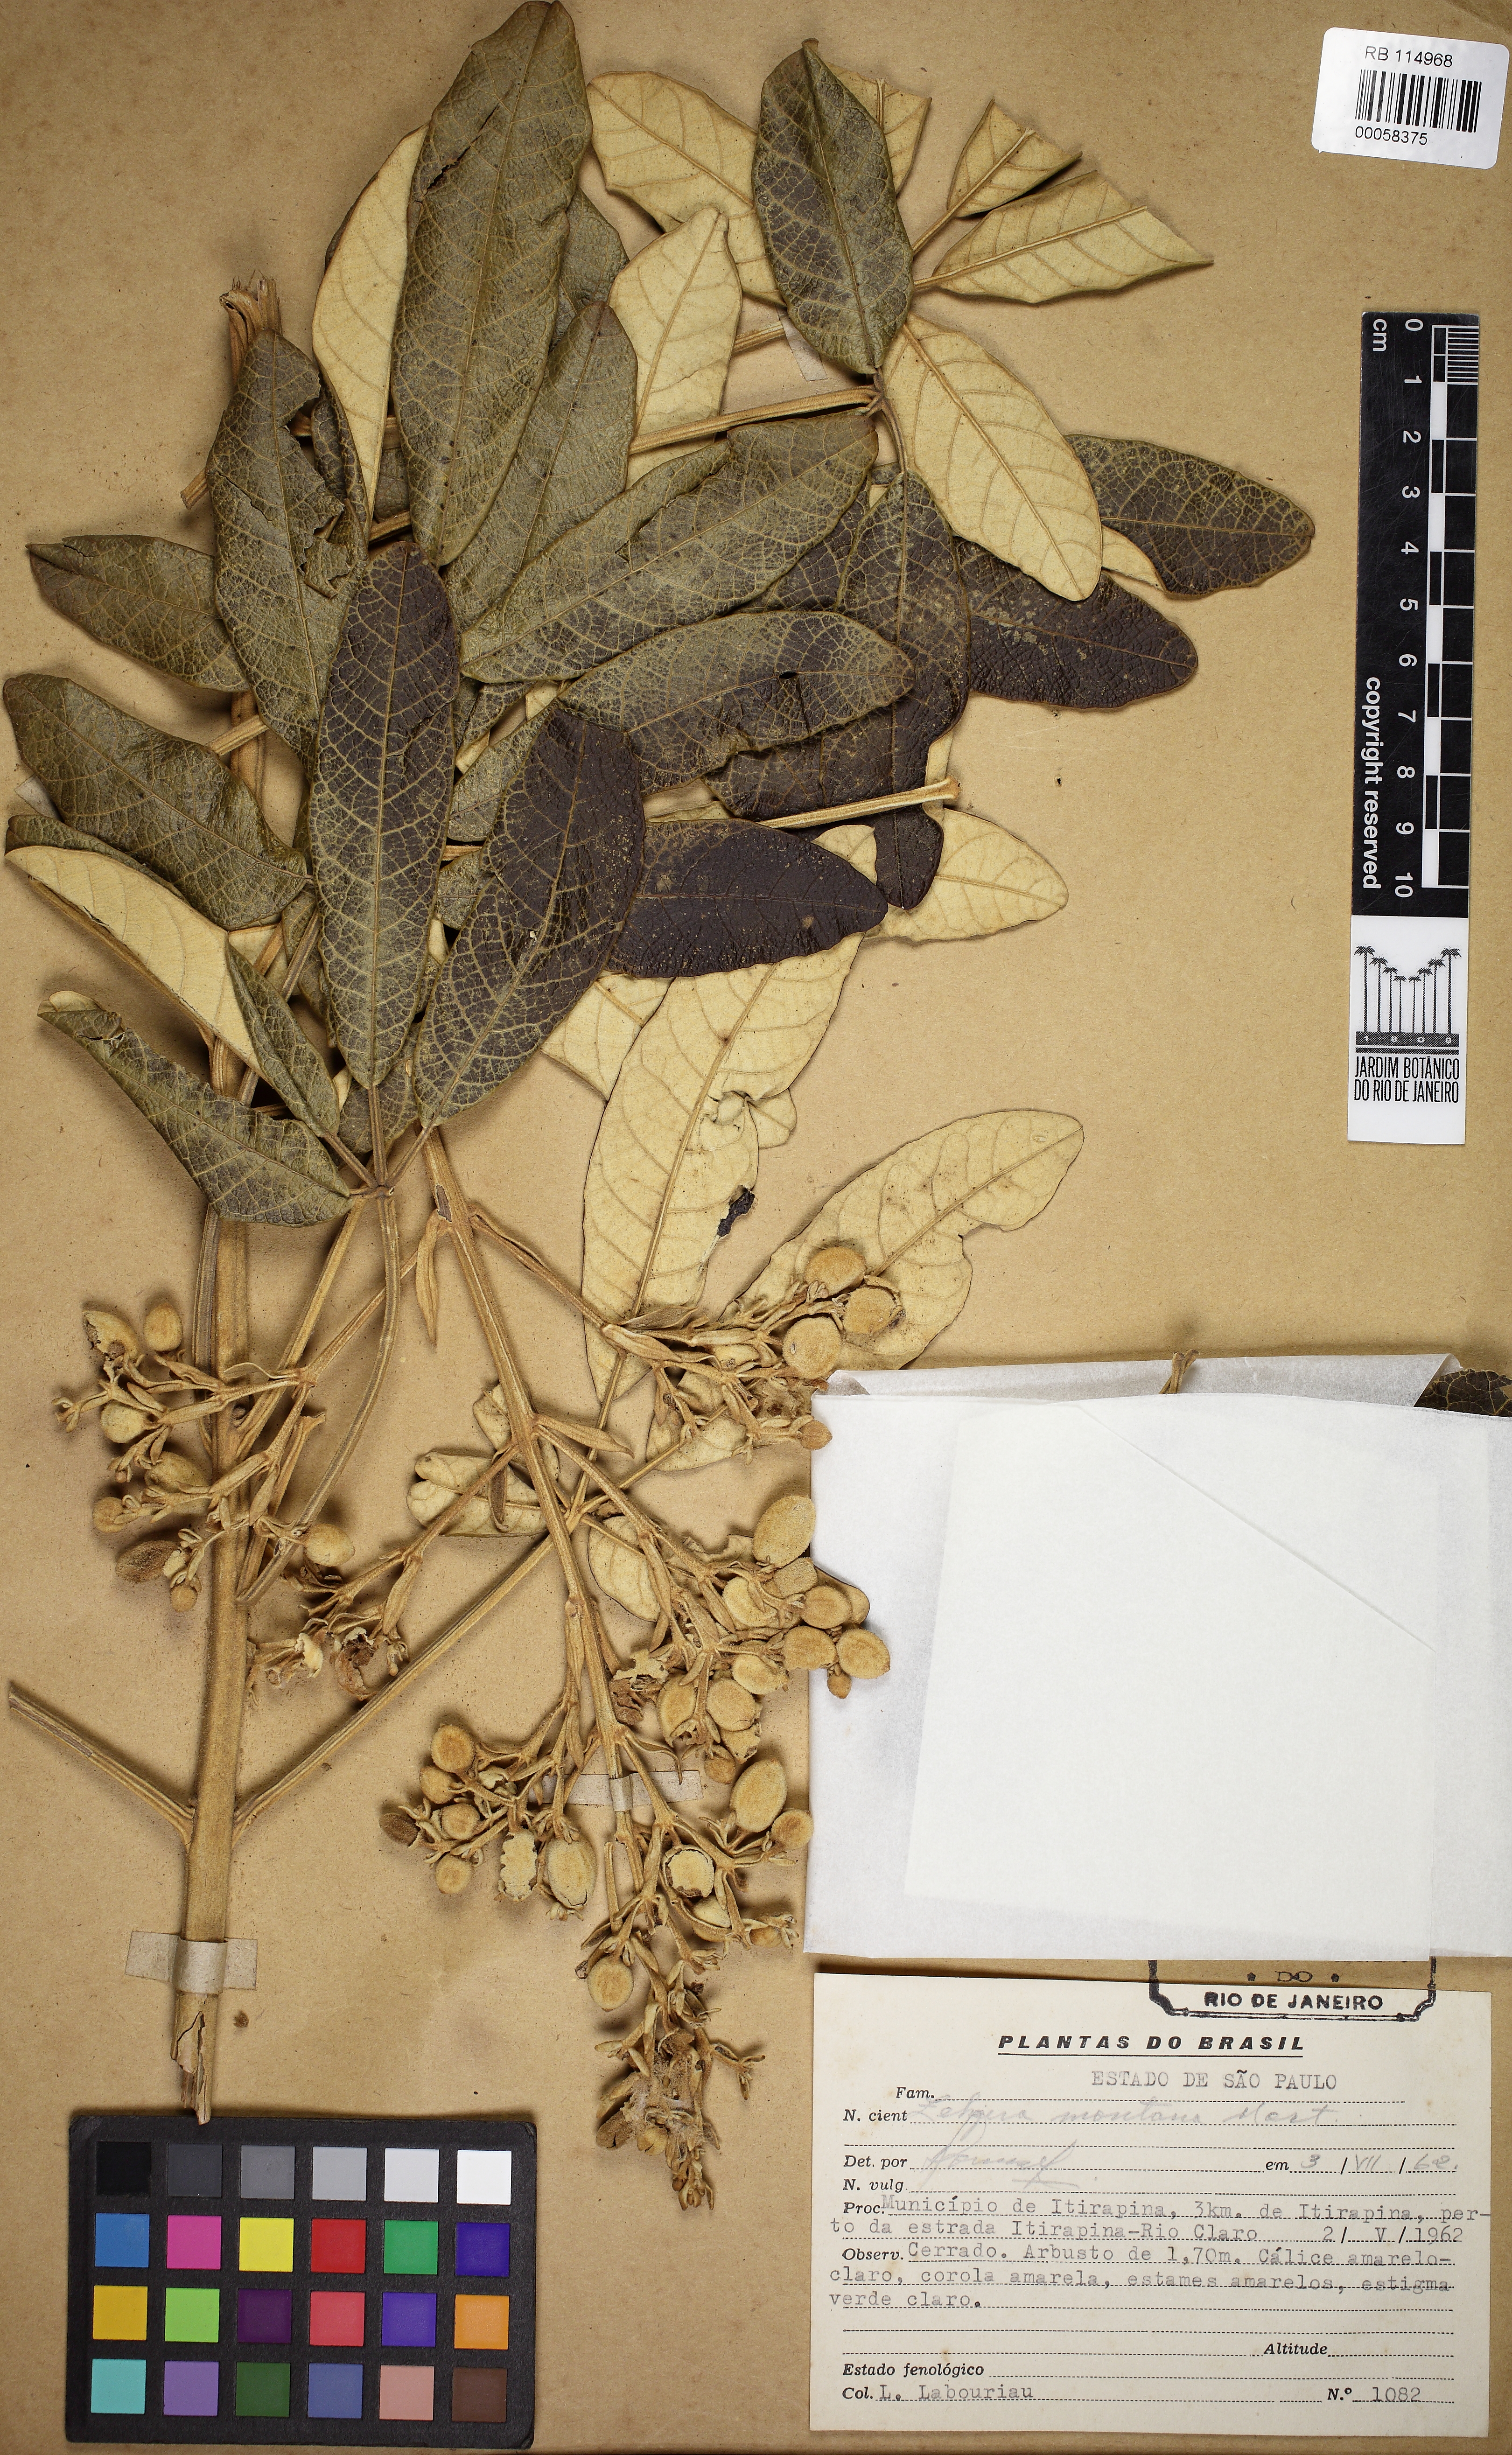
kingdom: Plantae
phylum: Tracheophyta
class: Magnoliopsida
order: Lamiales
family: Bignoniaceae
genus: Zeyheria
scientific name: Zeyheria montana
